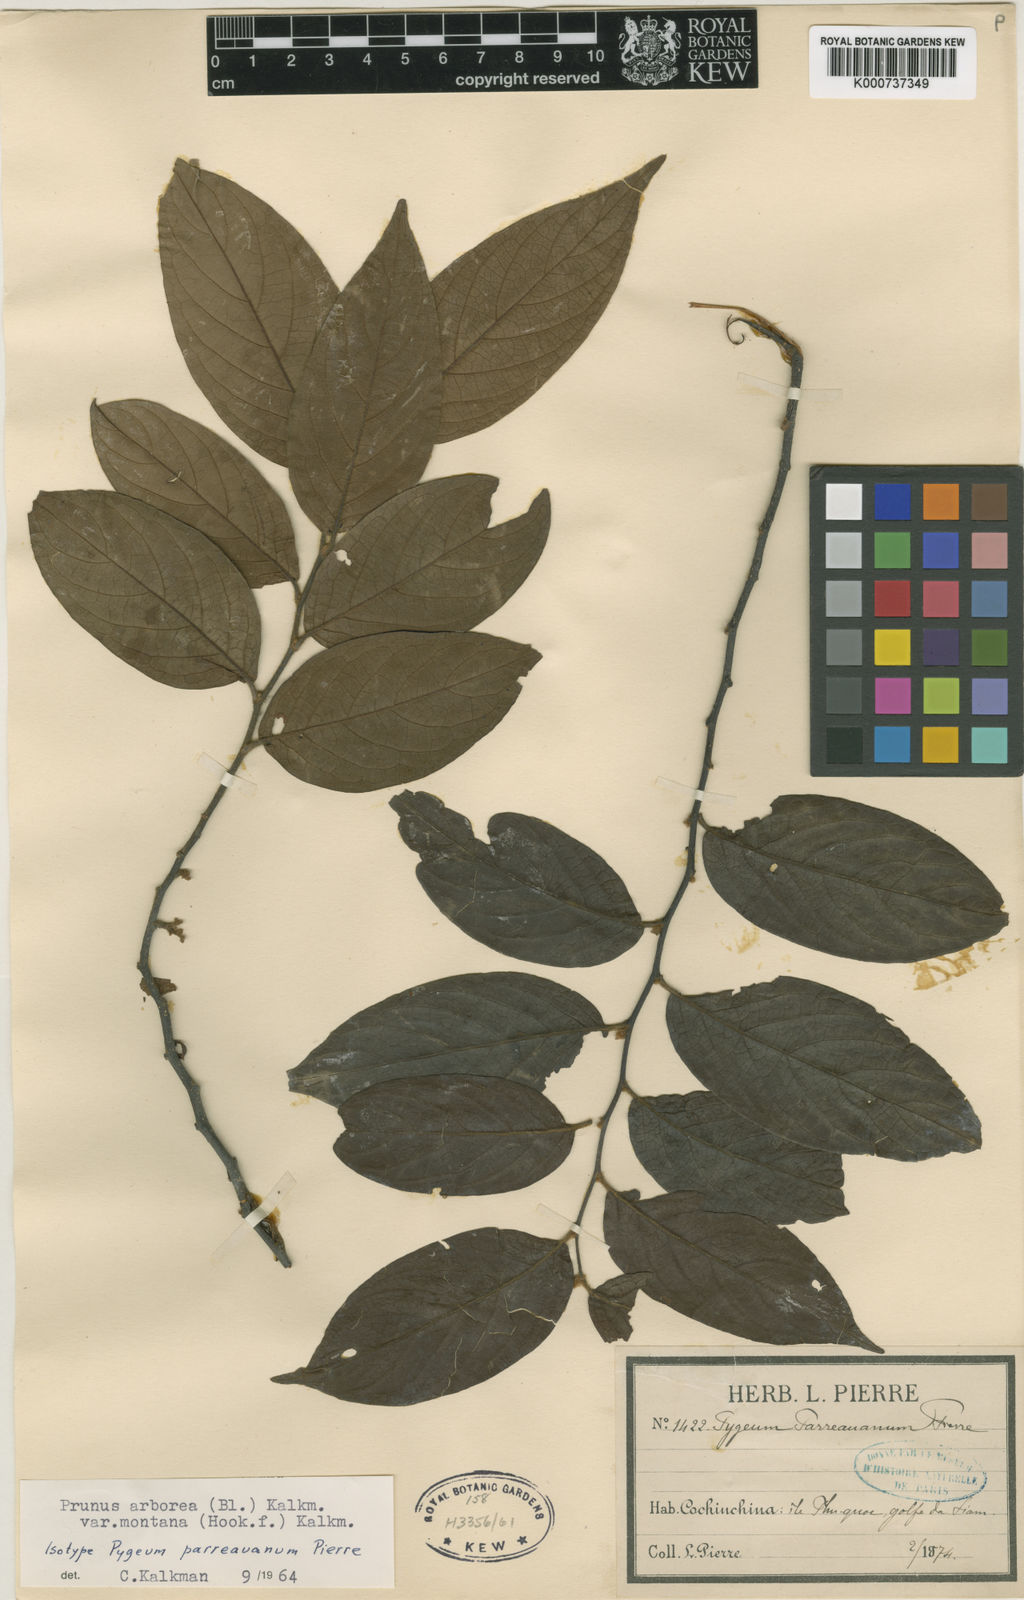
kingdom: Plantae
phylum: Tracheophyta
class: Magnoliopsida
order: Rosales
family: Rosaceae
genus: Prunus
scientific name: Prunus arborea
